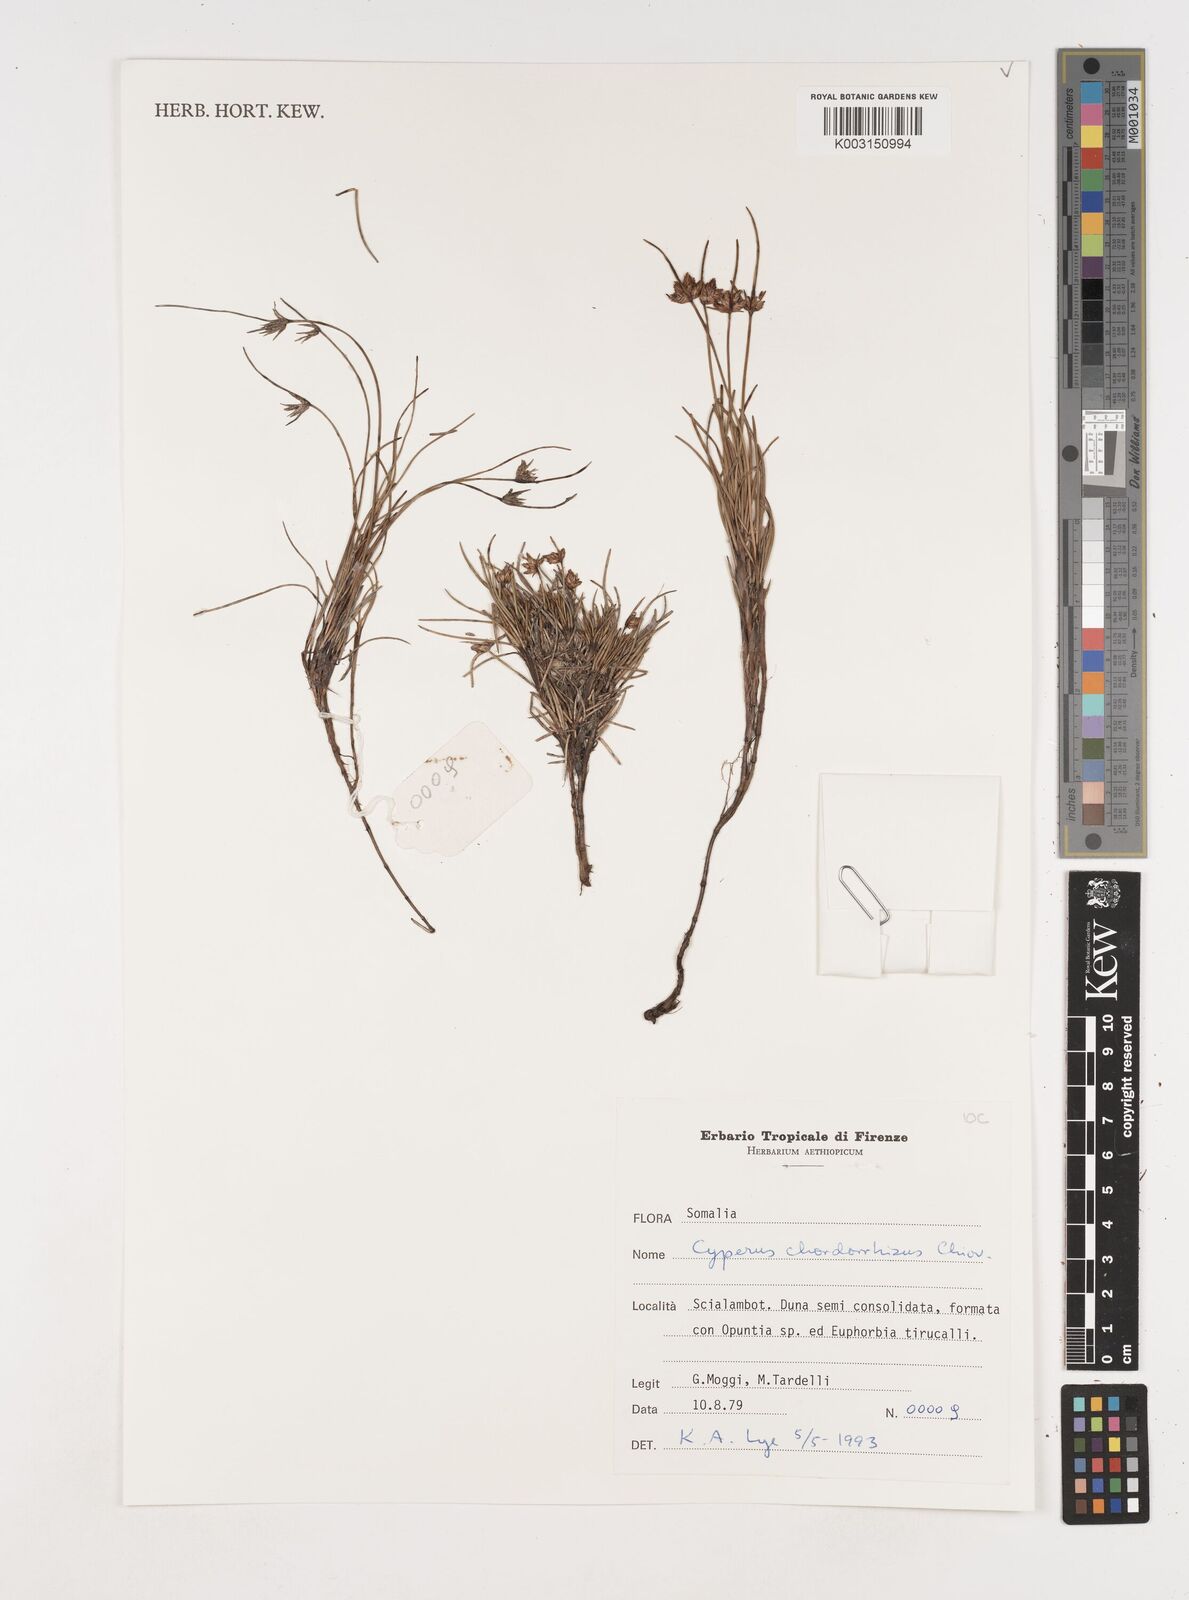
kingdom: Plantae
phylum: Tracheophyta
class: Liliopsida
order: Poales
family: Cyperaceae
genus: Cyperus
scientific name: Cyperus chordorrhizus
